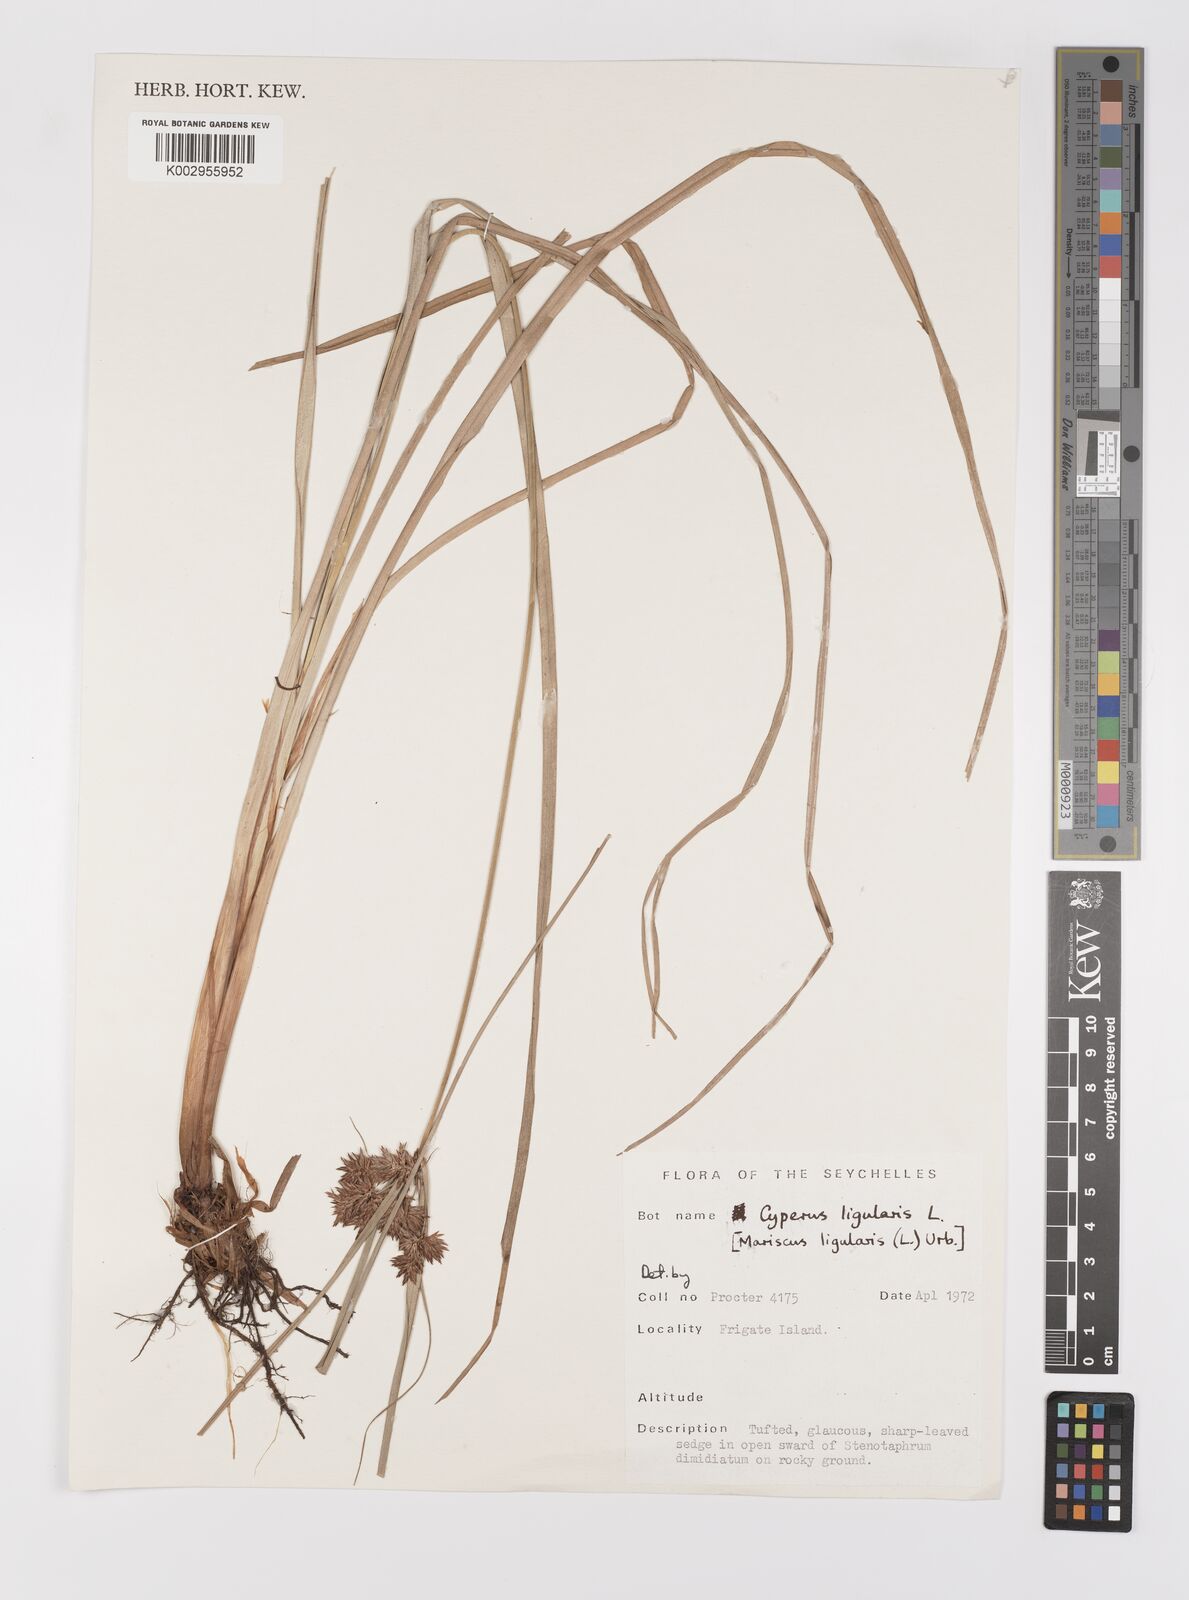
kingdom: Plantae
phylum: Tracheophyta
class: Liliopsida
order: Poales
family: Cyperaceae
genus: Cyperus
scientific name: Cyperus ligularis
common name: Swamp flat sedge
